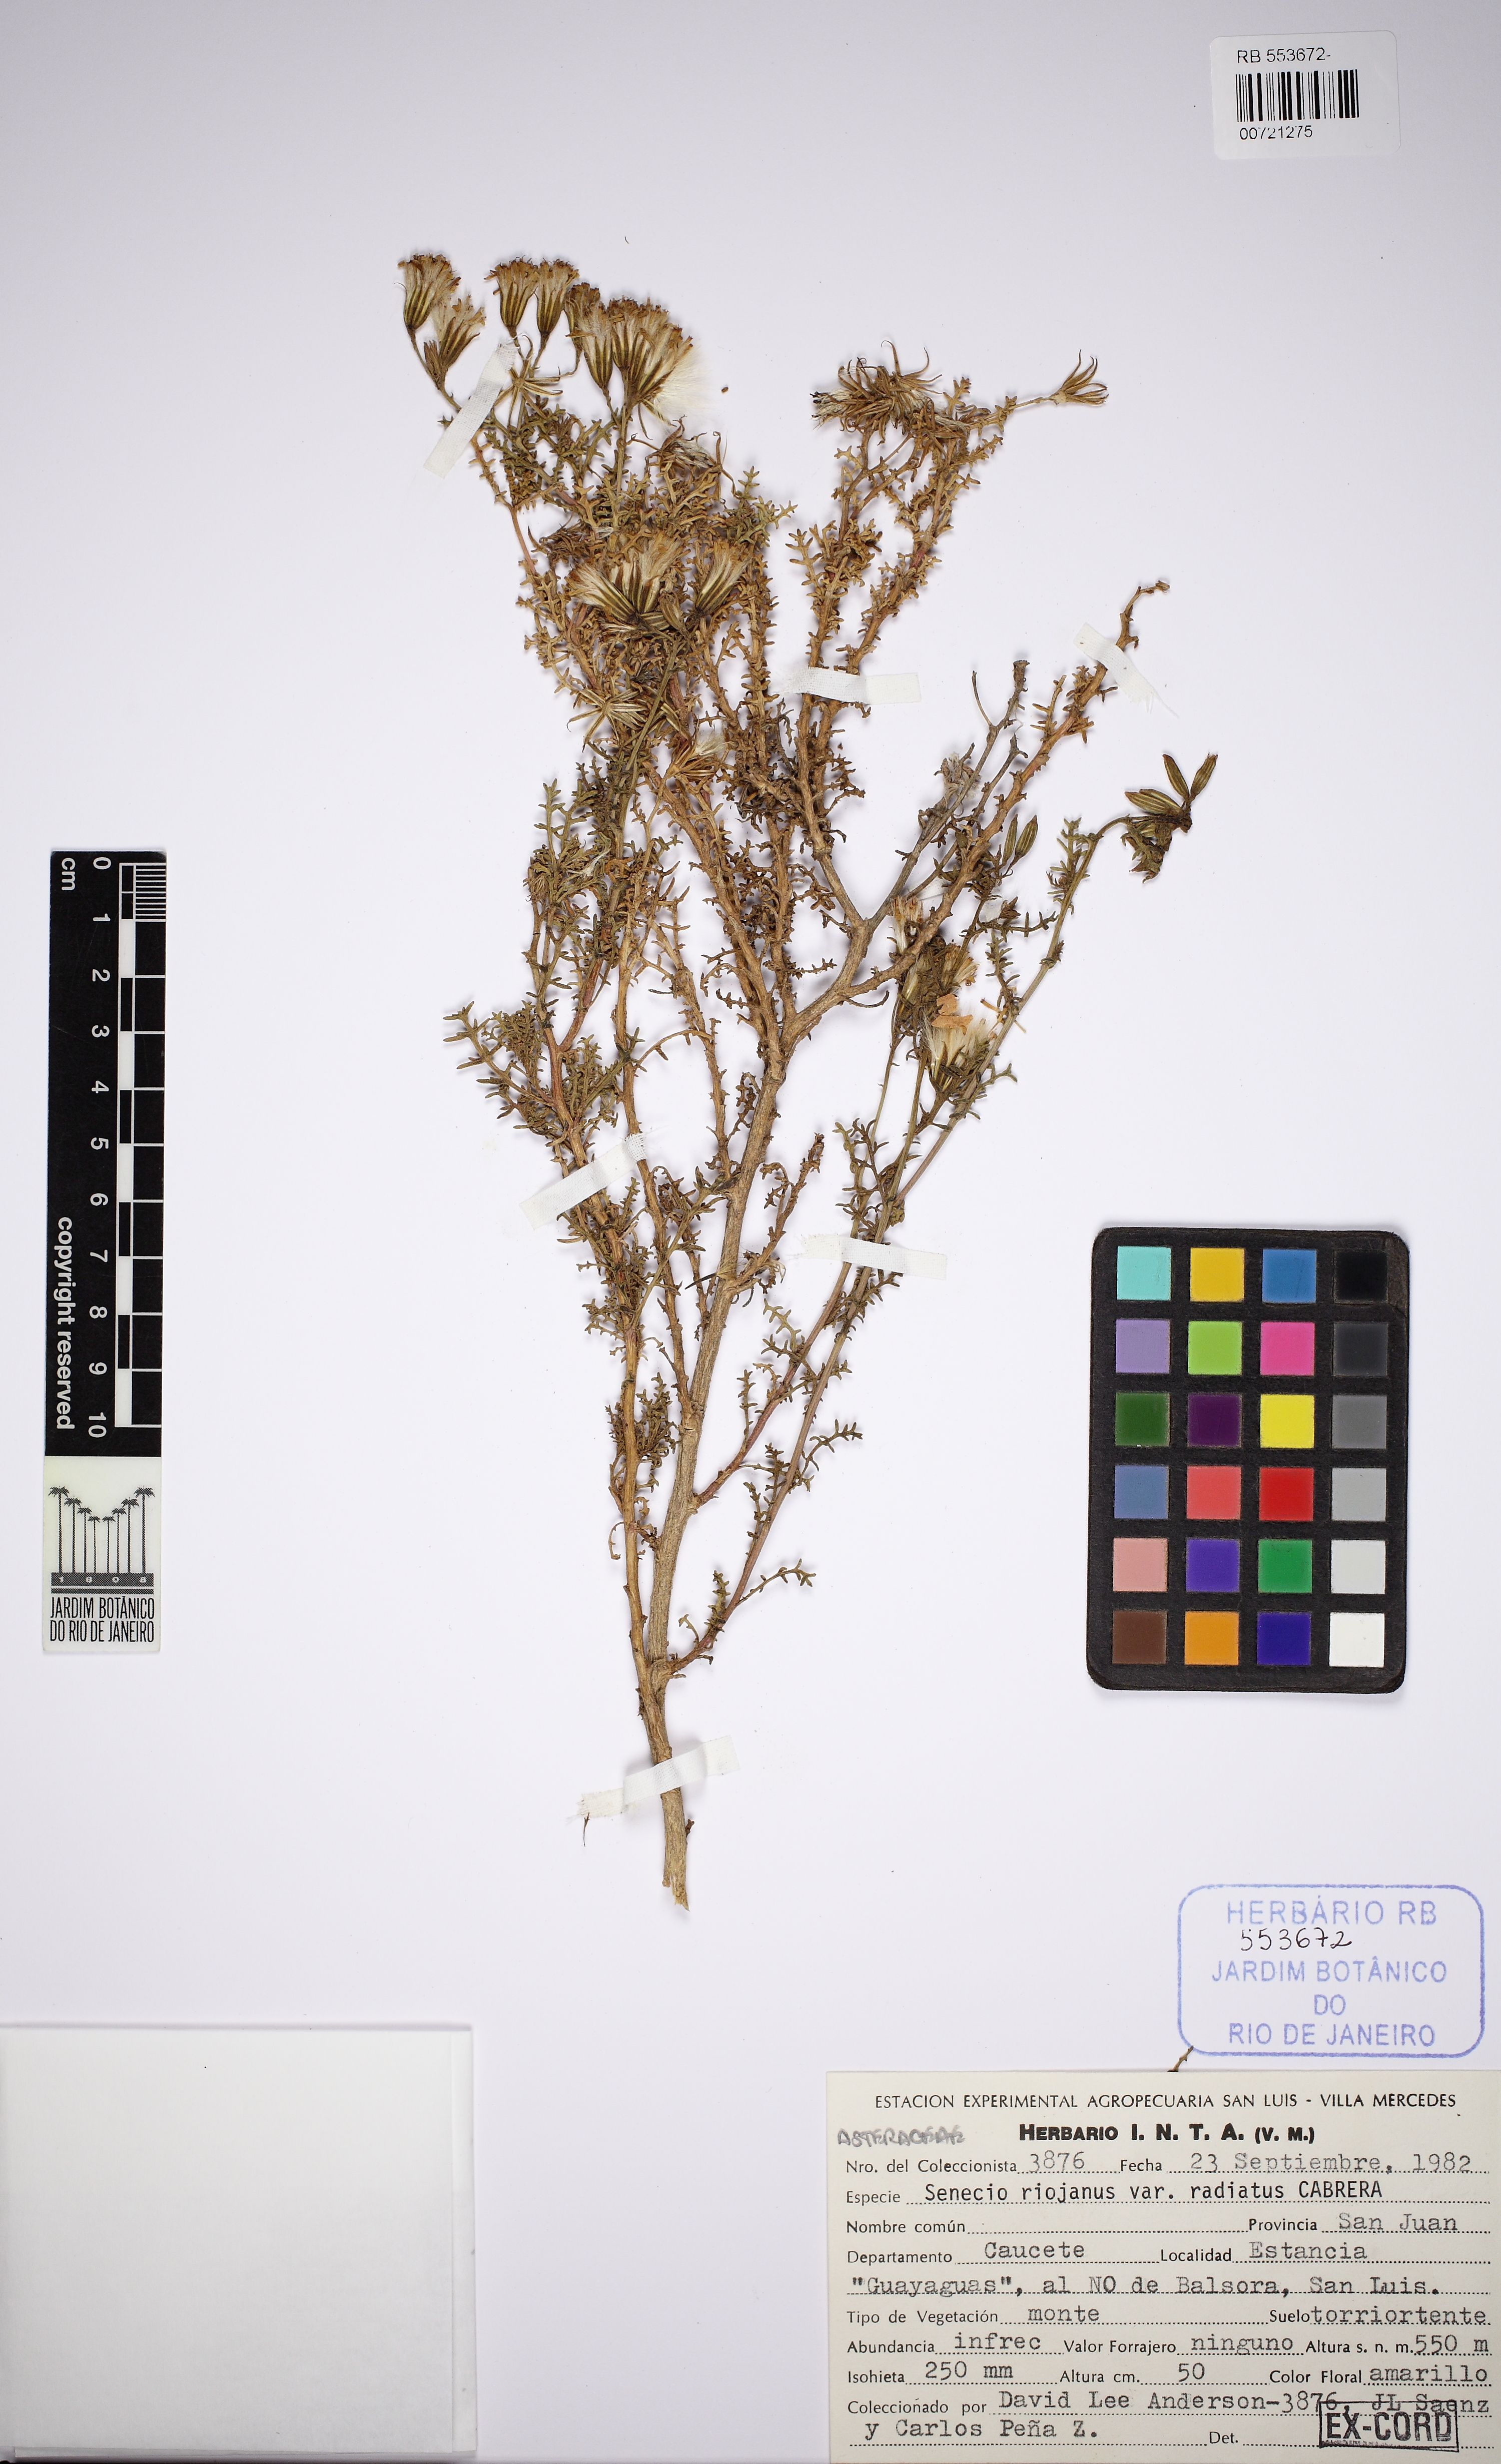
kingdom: Plantae
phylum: Tracheophyta
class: Magnoliopsida
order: Asterales
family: Asteraceae
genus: Senecio
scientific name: Senecio riograndensis
